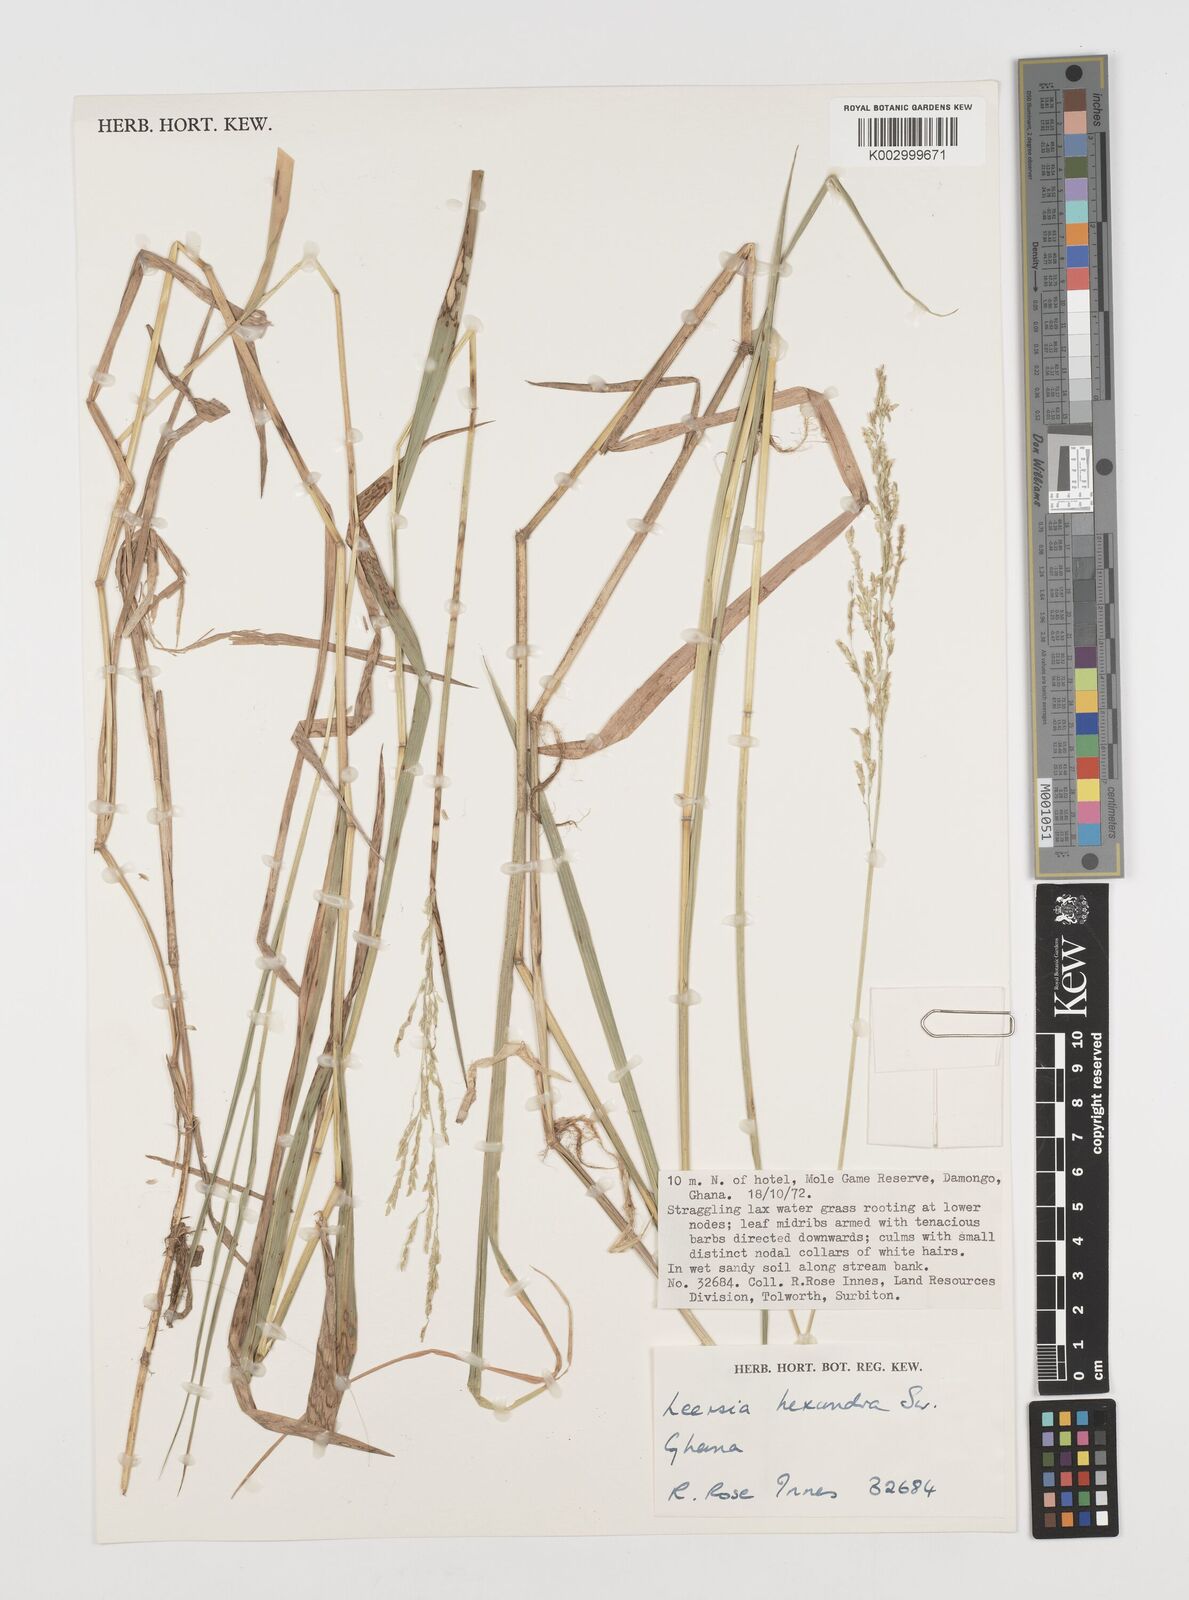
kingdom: Plantae
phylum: Tracheophyta
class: Liliopsida
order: Poales
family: Poaceae
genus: Leersia
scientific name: Leersia hexandra
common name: Southern cut grass
